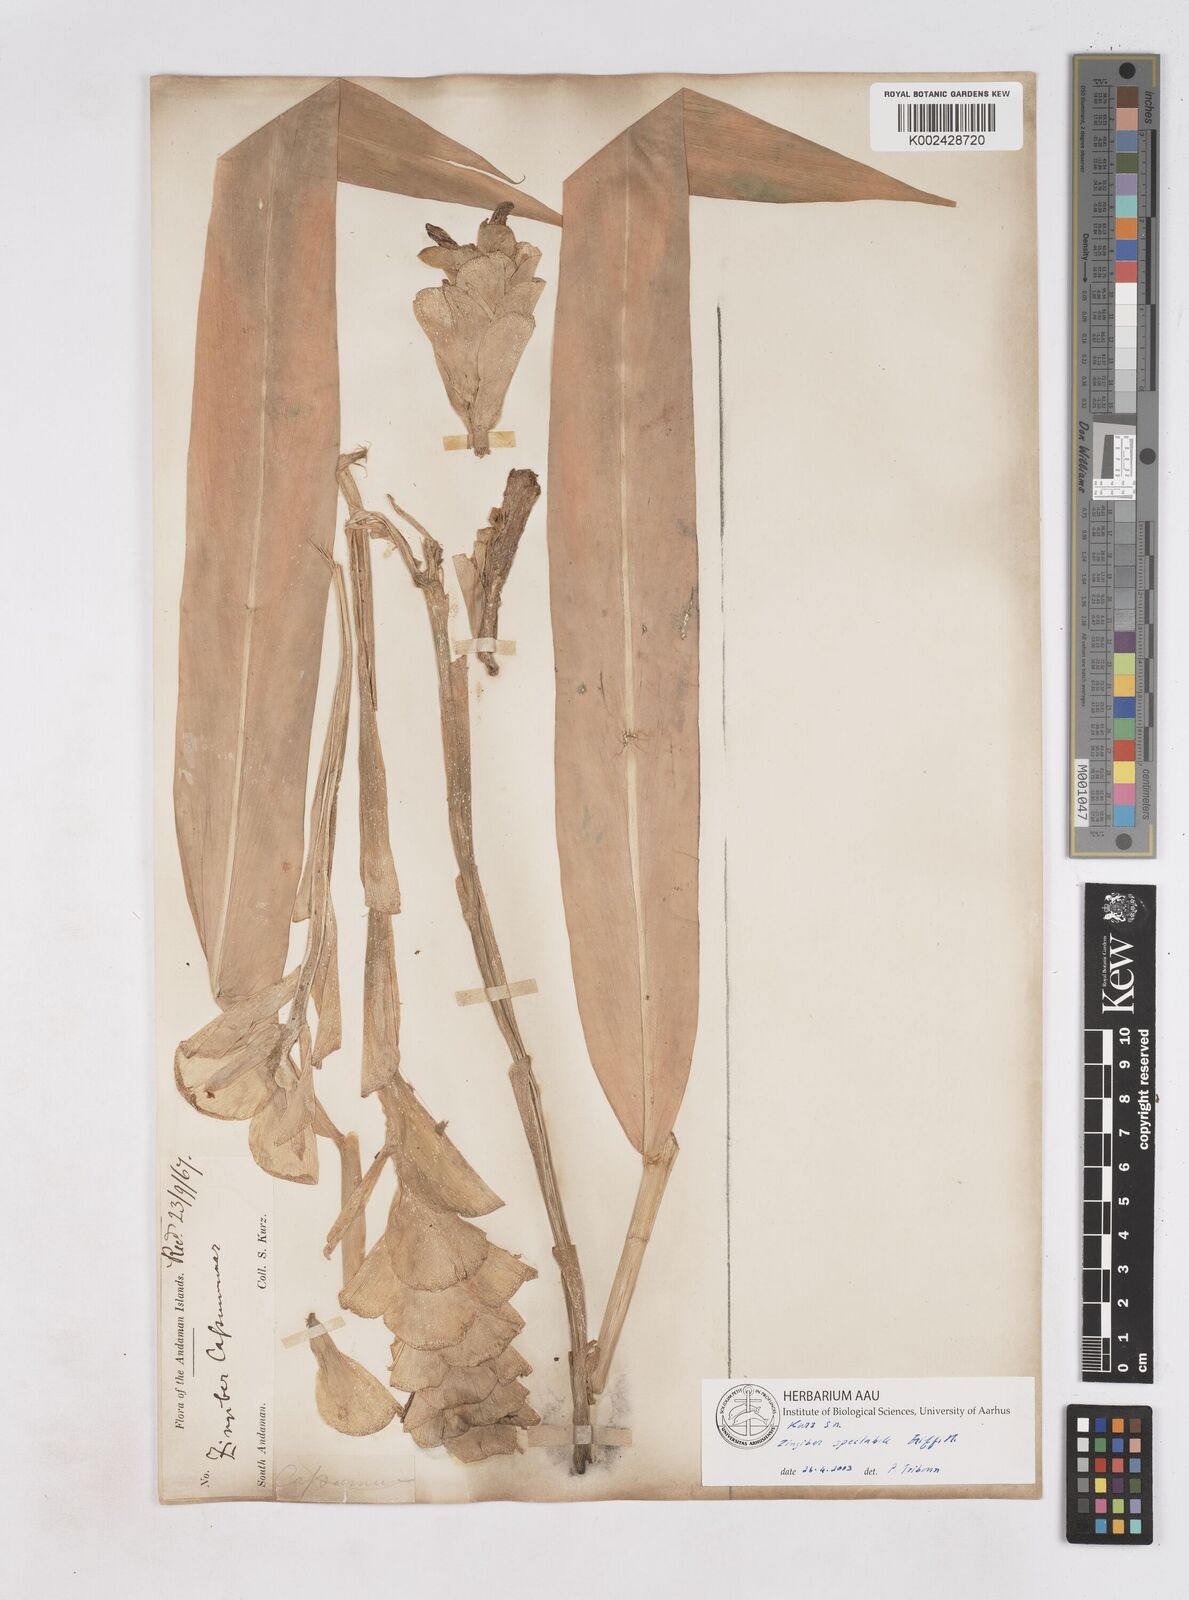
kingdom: Plantae
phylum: Tracheophyta
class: Liliopsida
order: Zingiberales
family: Zingiberaceae
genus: Zingiber
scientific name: Zingiber spectabile
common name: Beehive ginger
